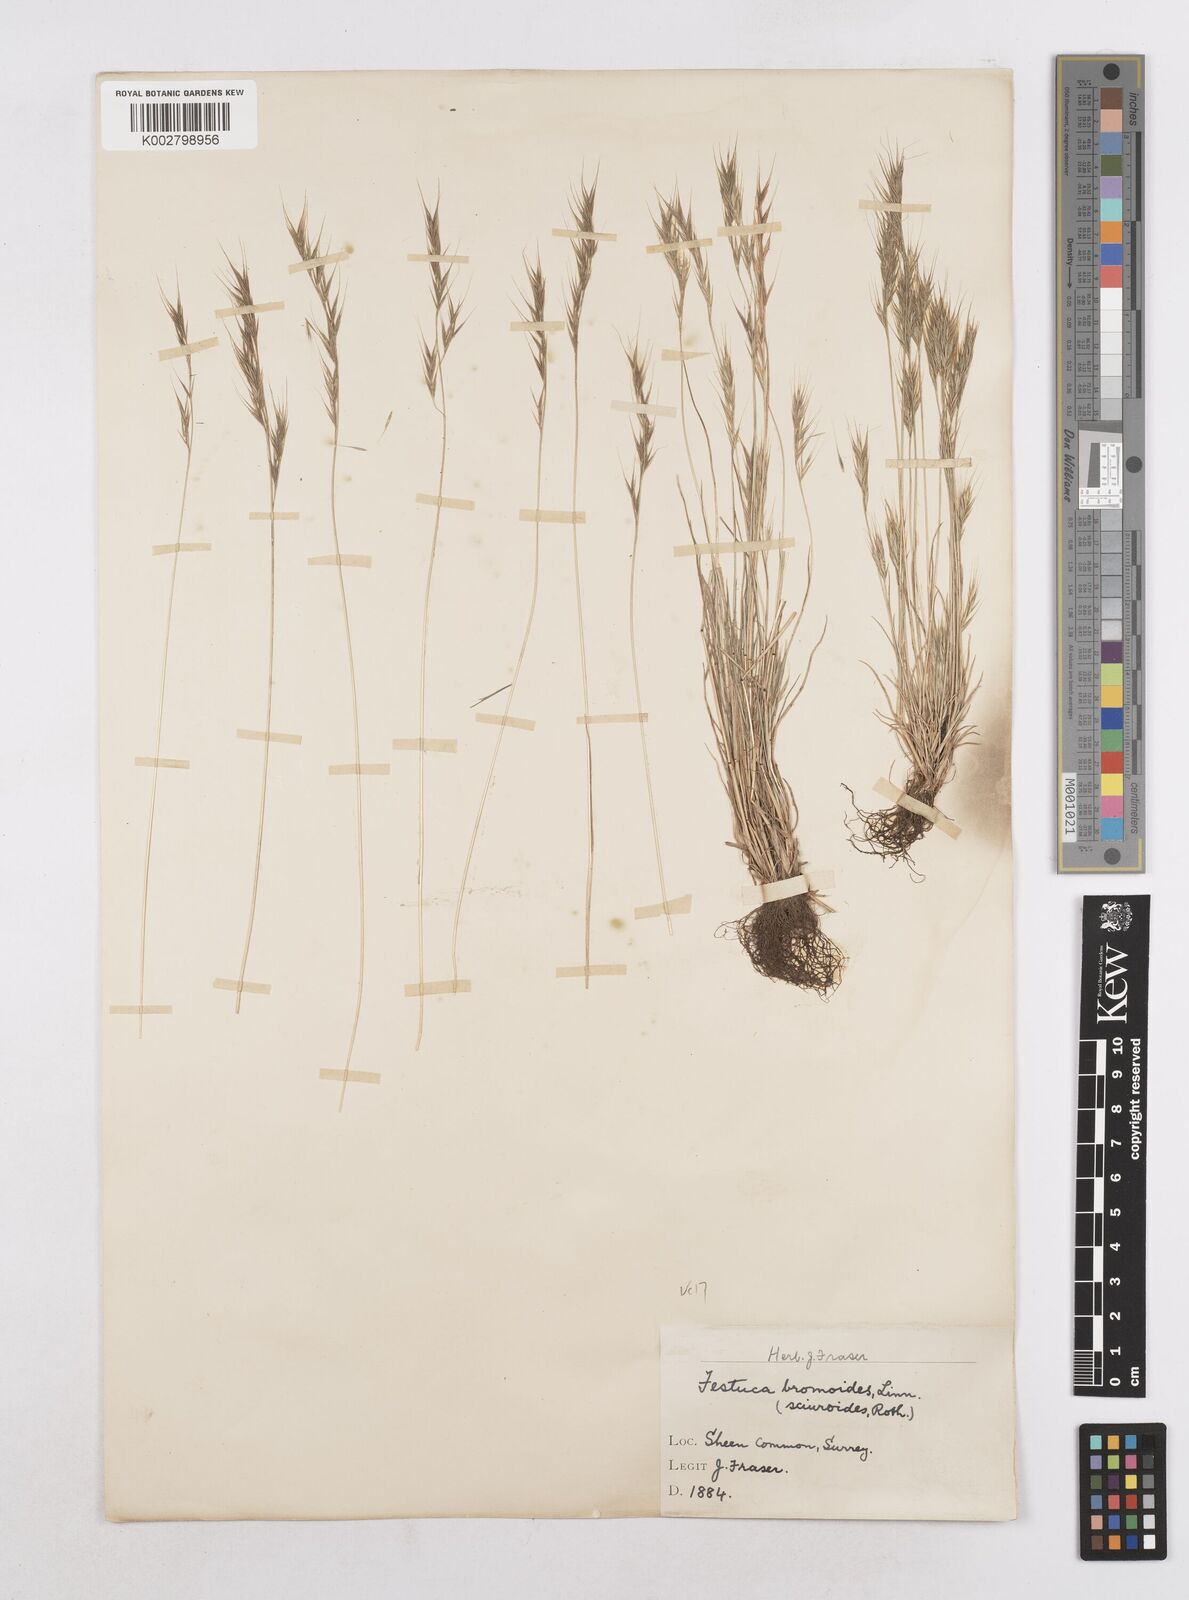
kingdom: Plantae
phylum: Tracheophyta
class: Liliopsida
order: Poales
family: Poaceae
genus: Festuca
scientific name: Festuca bromoides
